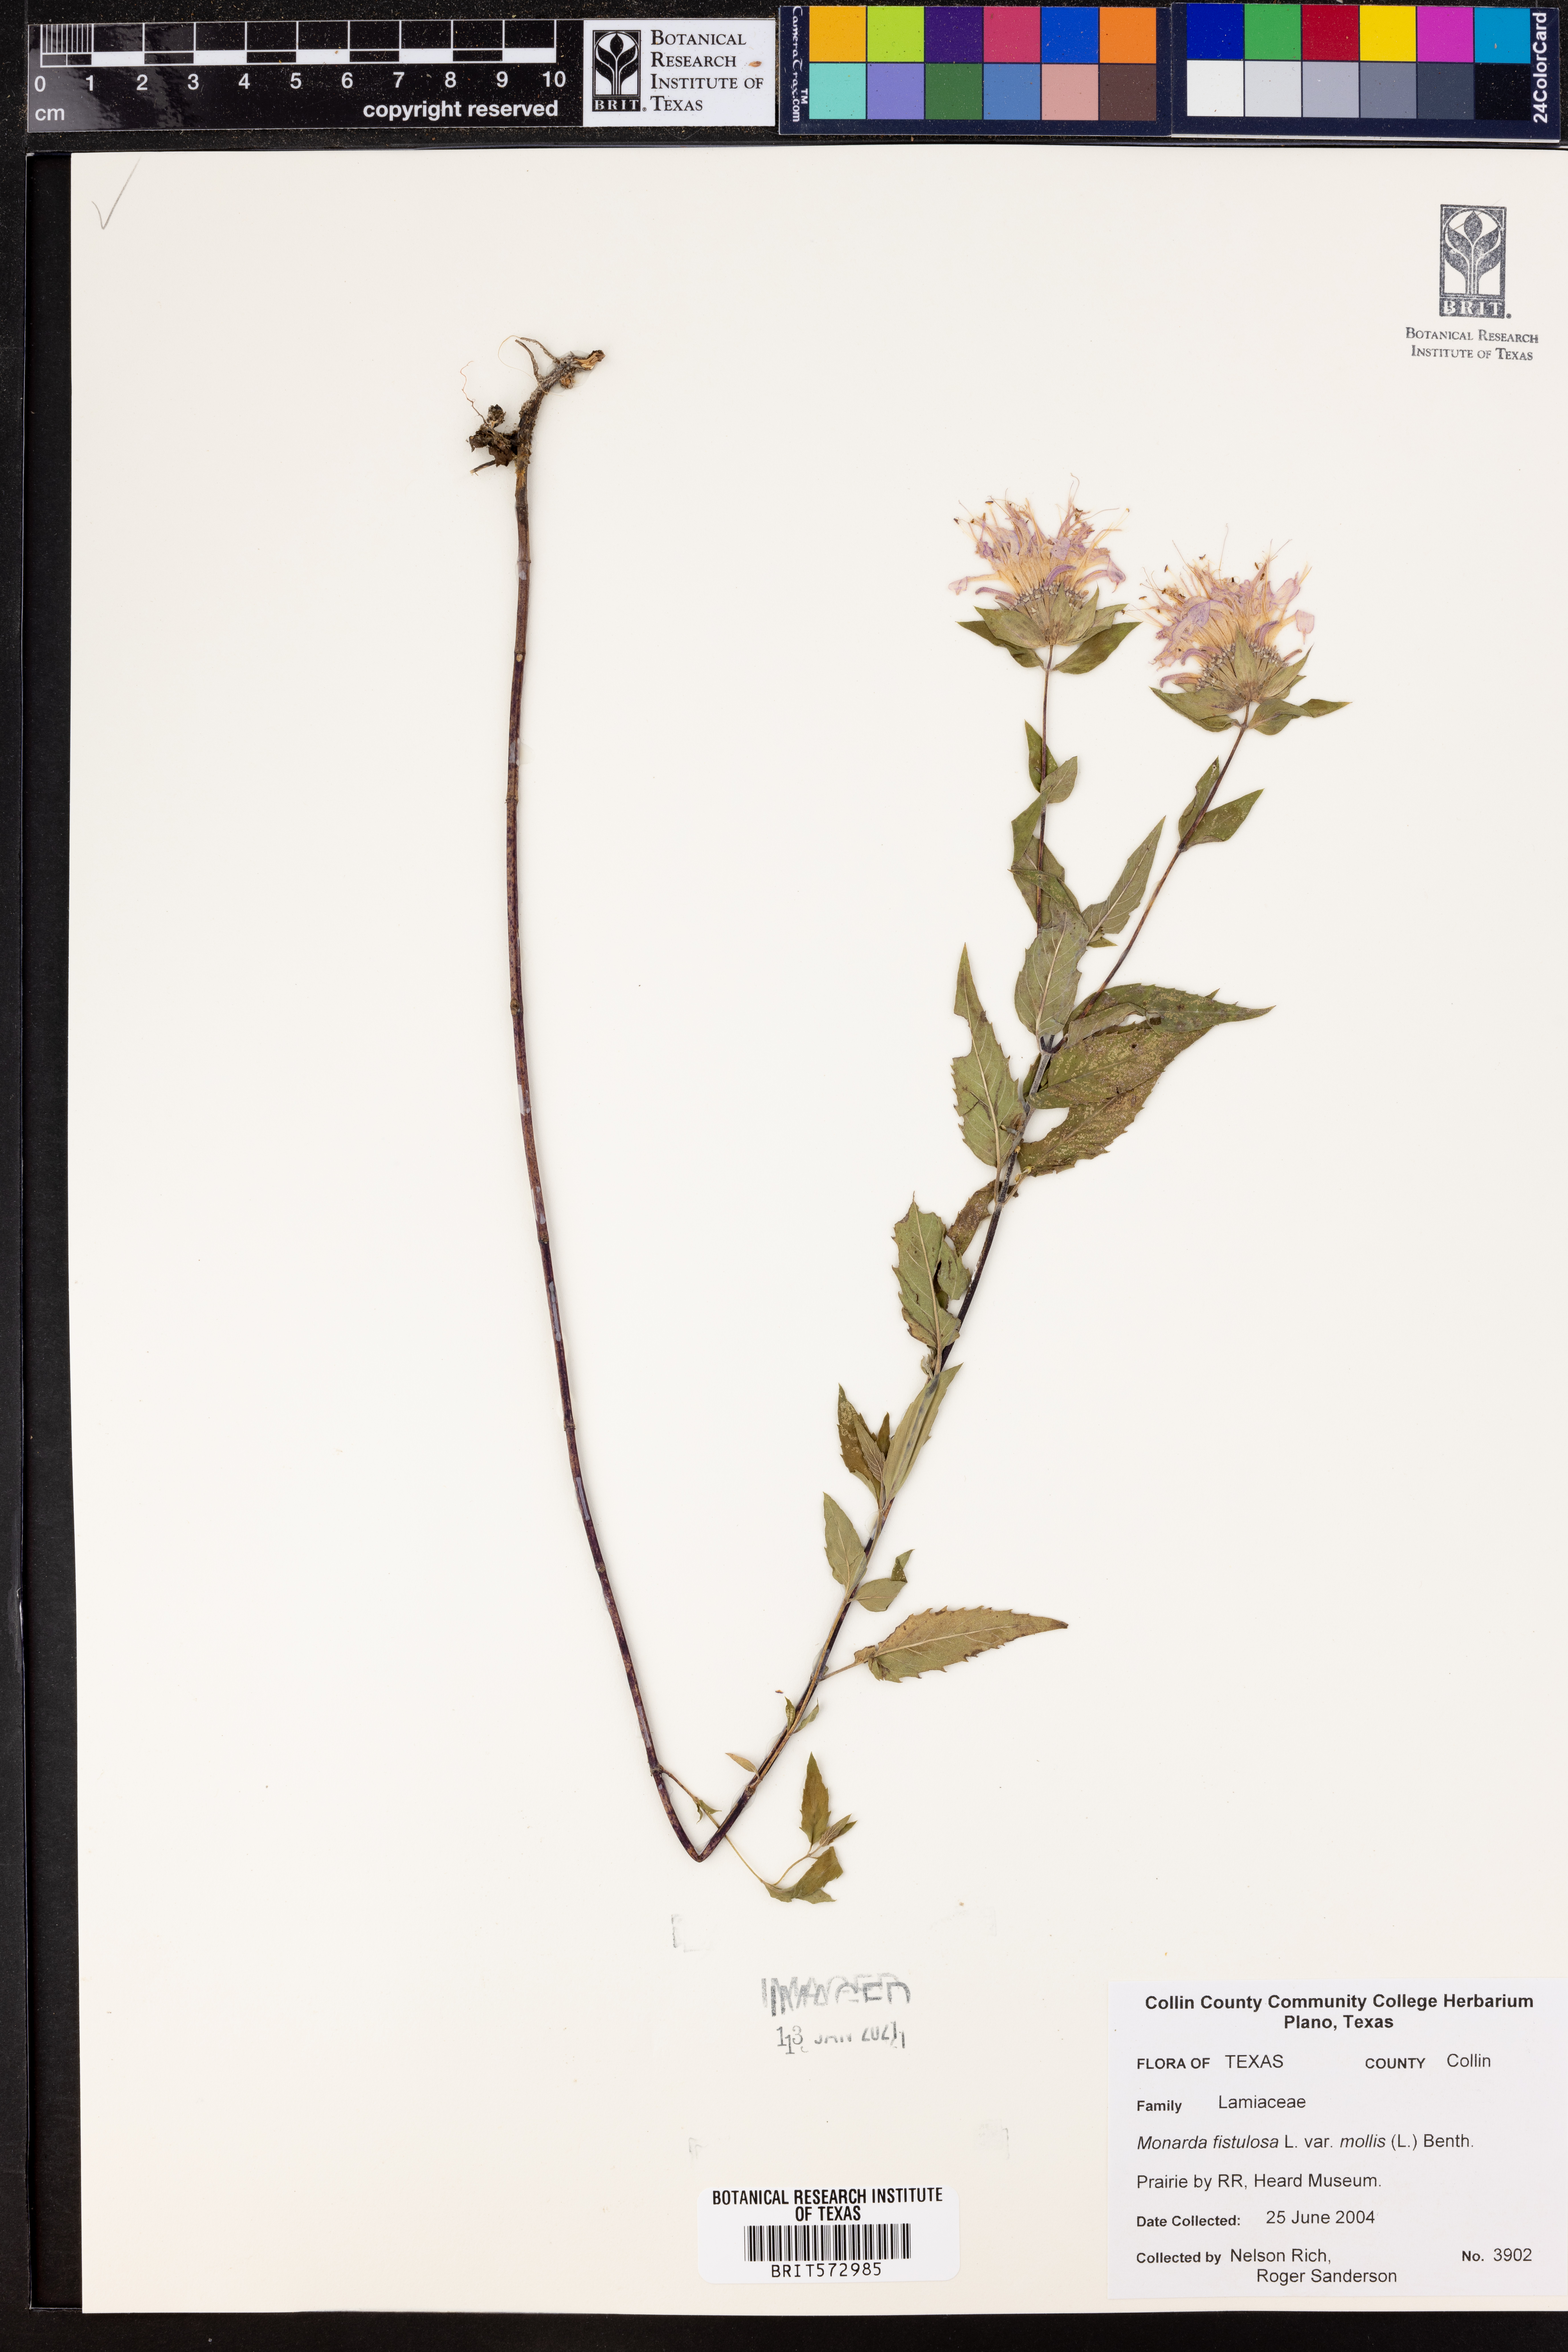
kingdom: Plantae
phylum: Tracheophyta
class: Magnoliopsida
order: Lamiales
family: Lamiaceae
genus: Monarda
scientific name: Monarda fistulosa
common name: Purple beebalm
